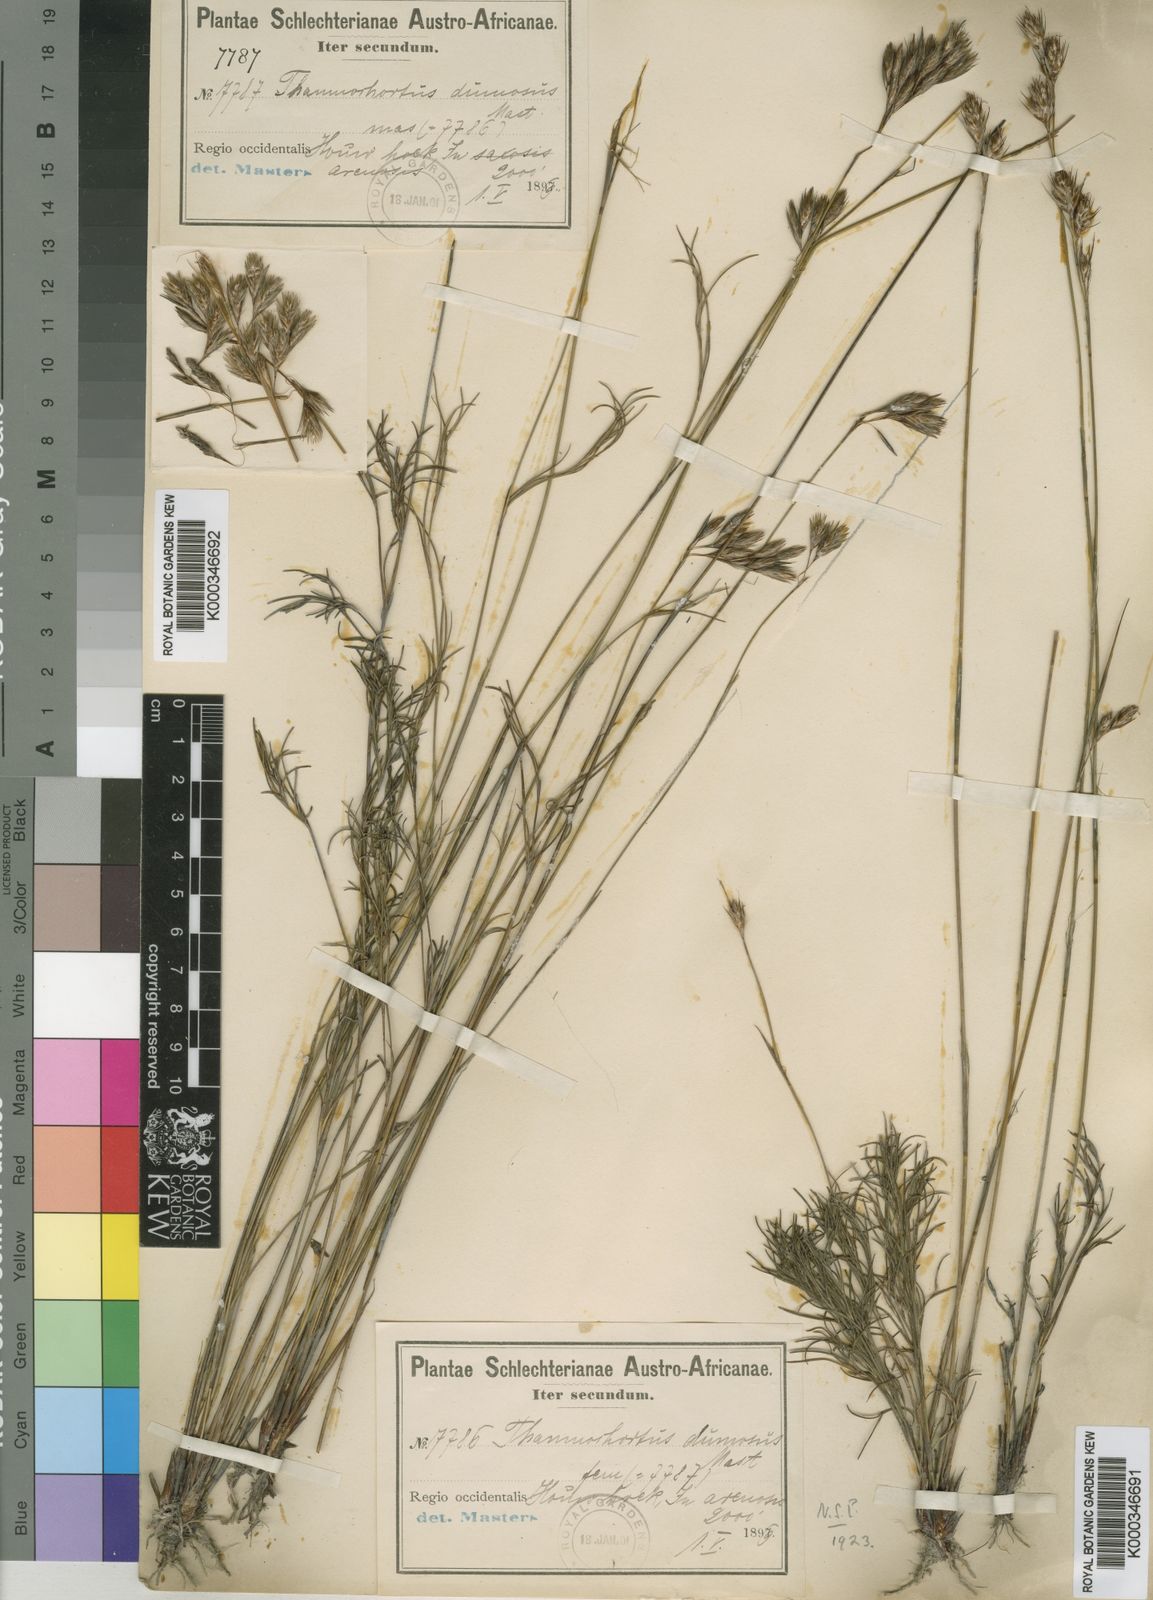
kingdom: Plantae
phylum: Tracheophyta
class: Liliopsida
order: Poales
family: Restionaceae
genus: Thamnochortus
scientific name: Thamnochortus dumosus
